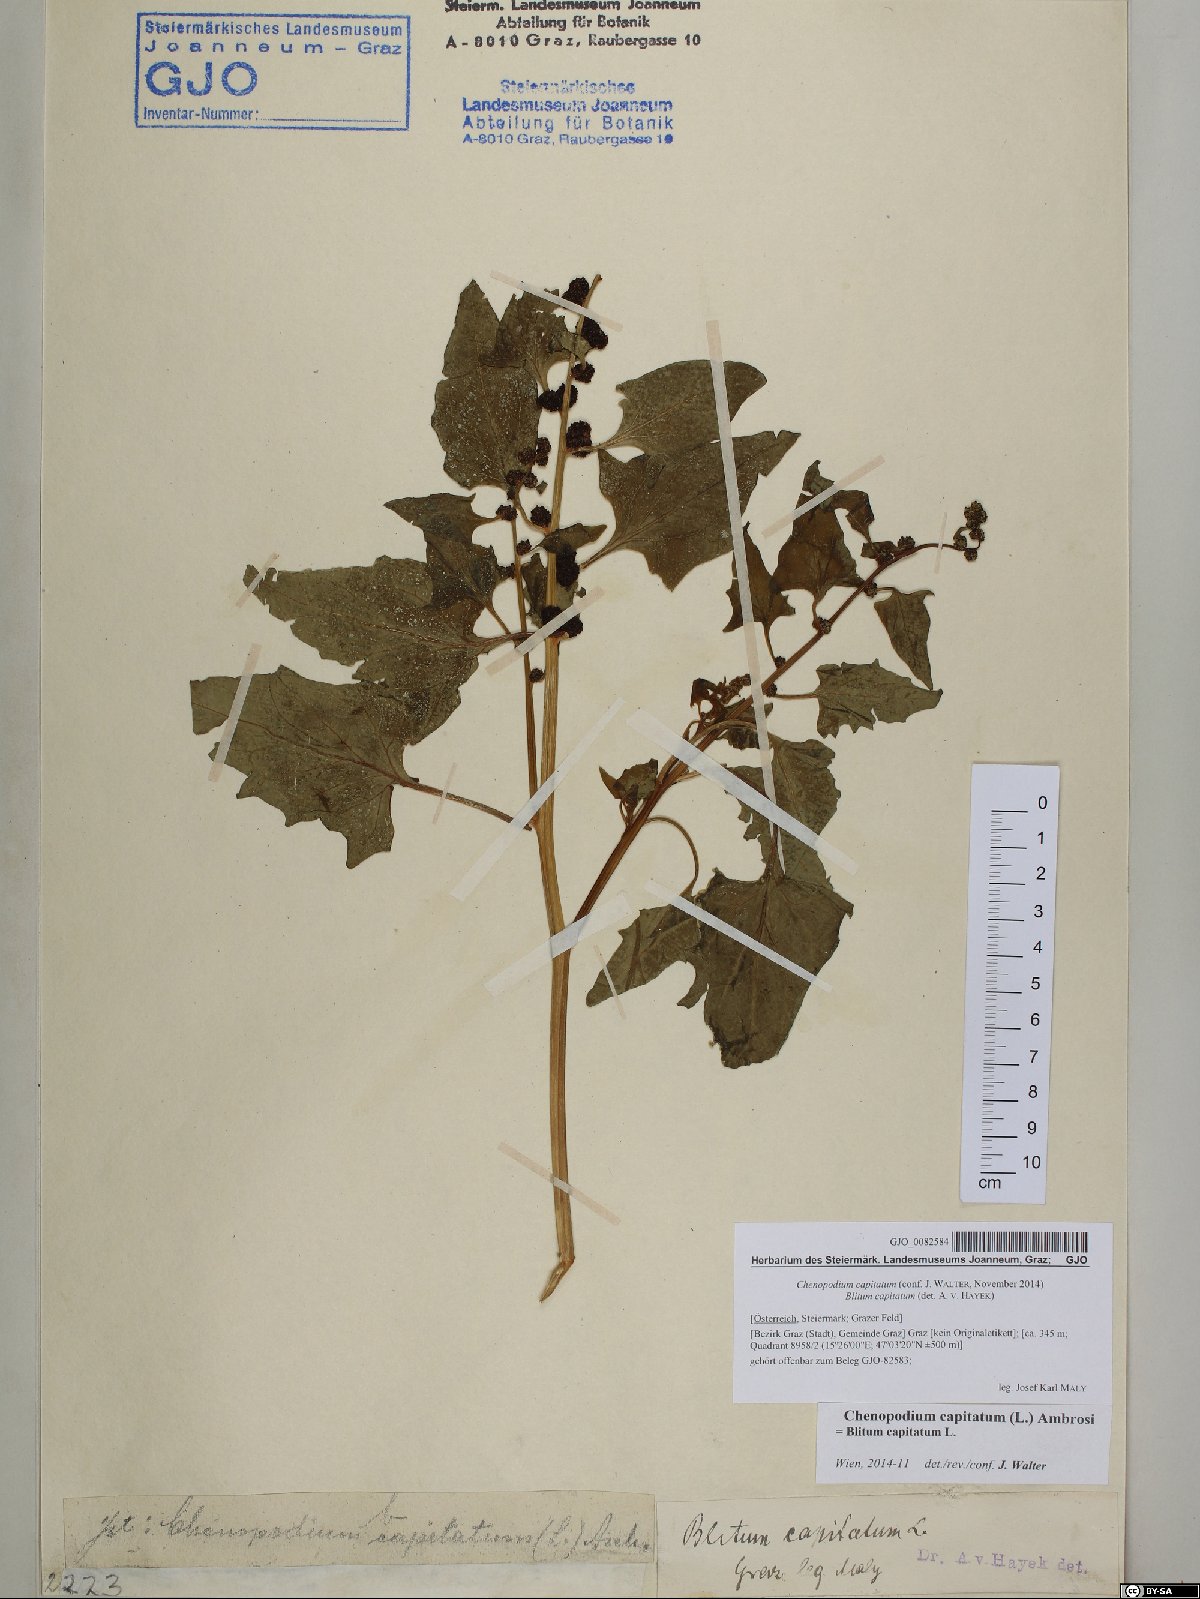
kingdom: Plantae
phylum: Tracheophyta
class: Magnoliopsida
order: Caryophyllales
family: Amaranthaceae
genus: Blitum
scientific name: Blitum capitatum
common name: Strawberry-blight
